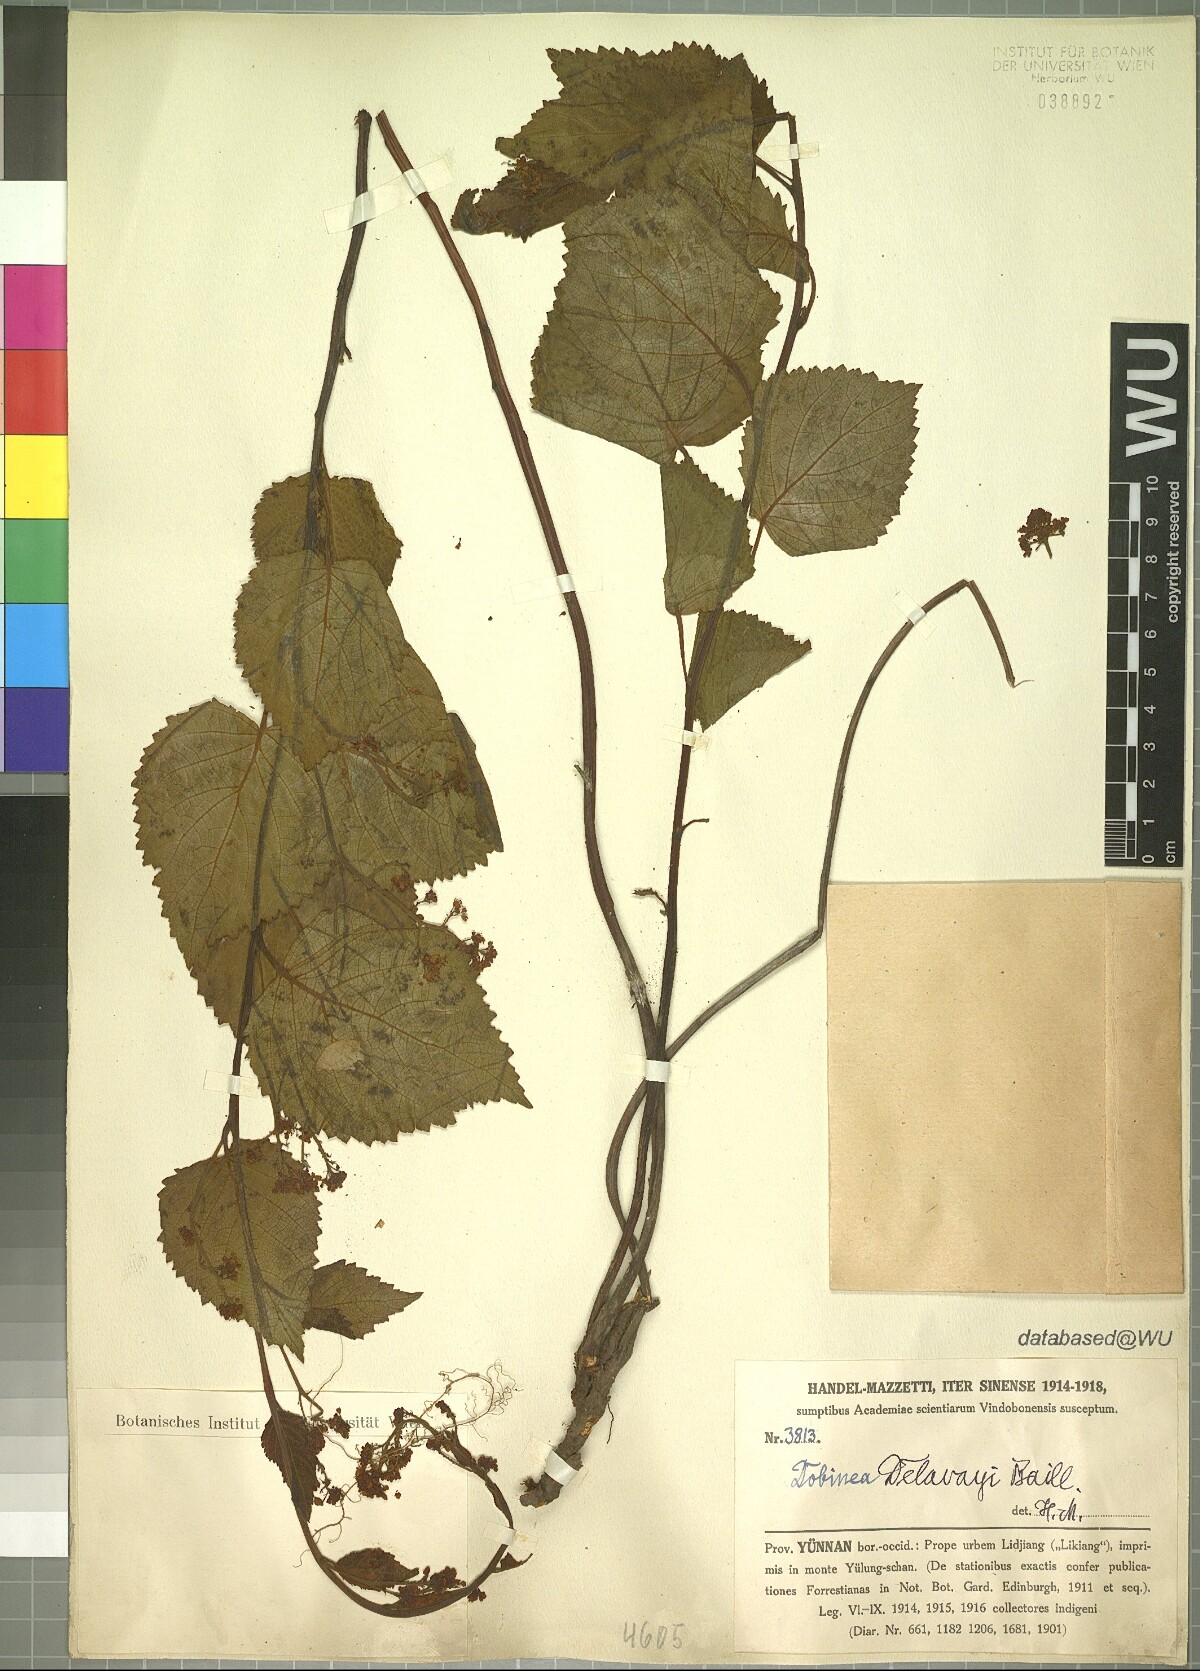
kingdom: Plantae
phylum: Tracheophyta
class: Magnoliopsida
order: Sapindales
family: Anacardiaceae
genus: Dobinea
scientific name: Dobinea delavayi
